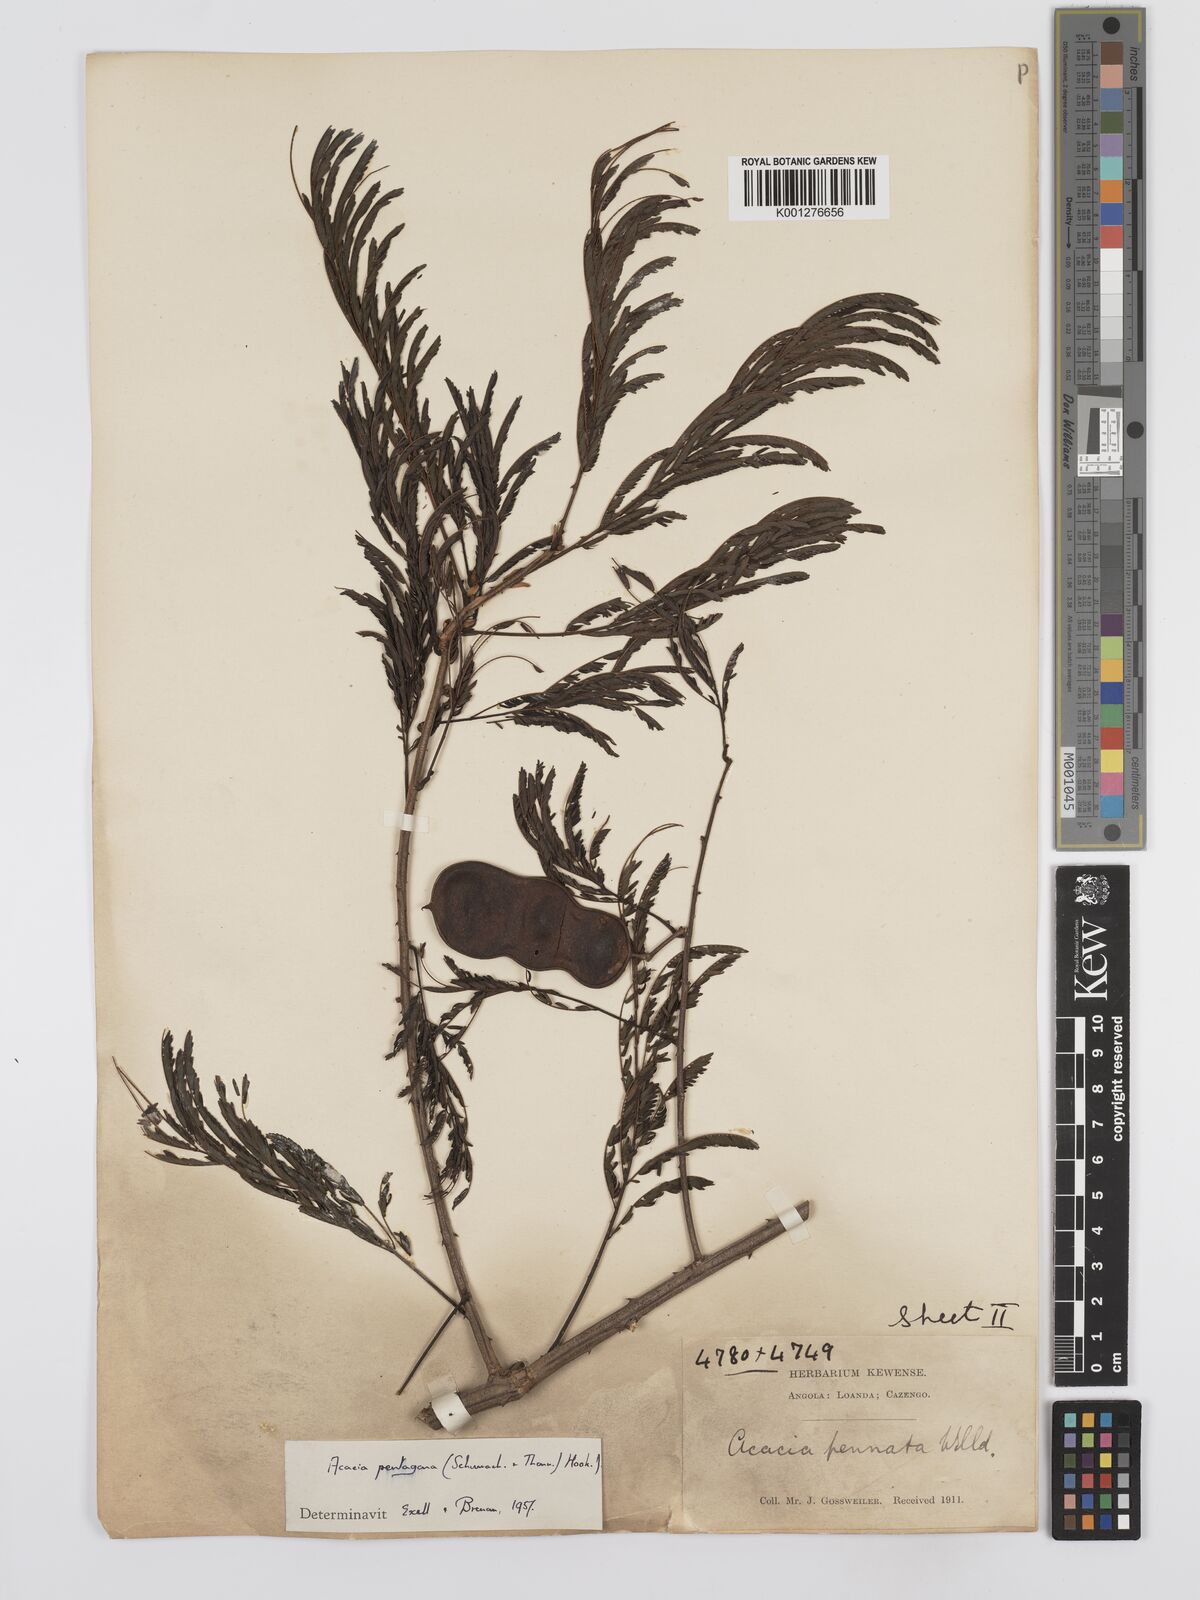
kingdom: Plantae
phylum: Tracheophyta
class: Magnoliopsida
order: Fabales
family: Fabaceae
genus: Senegalia
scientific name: Senegalia pentagona
